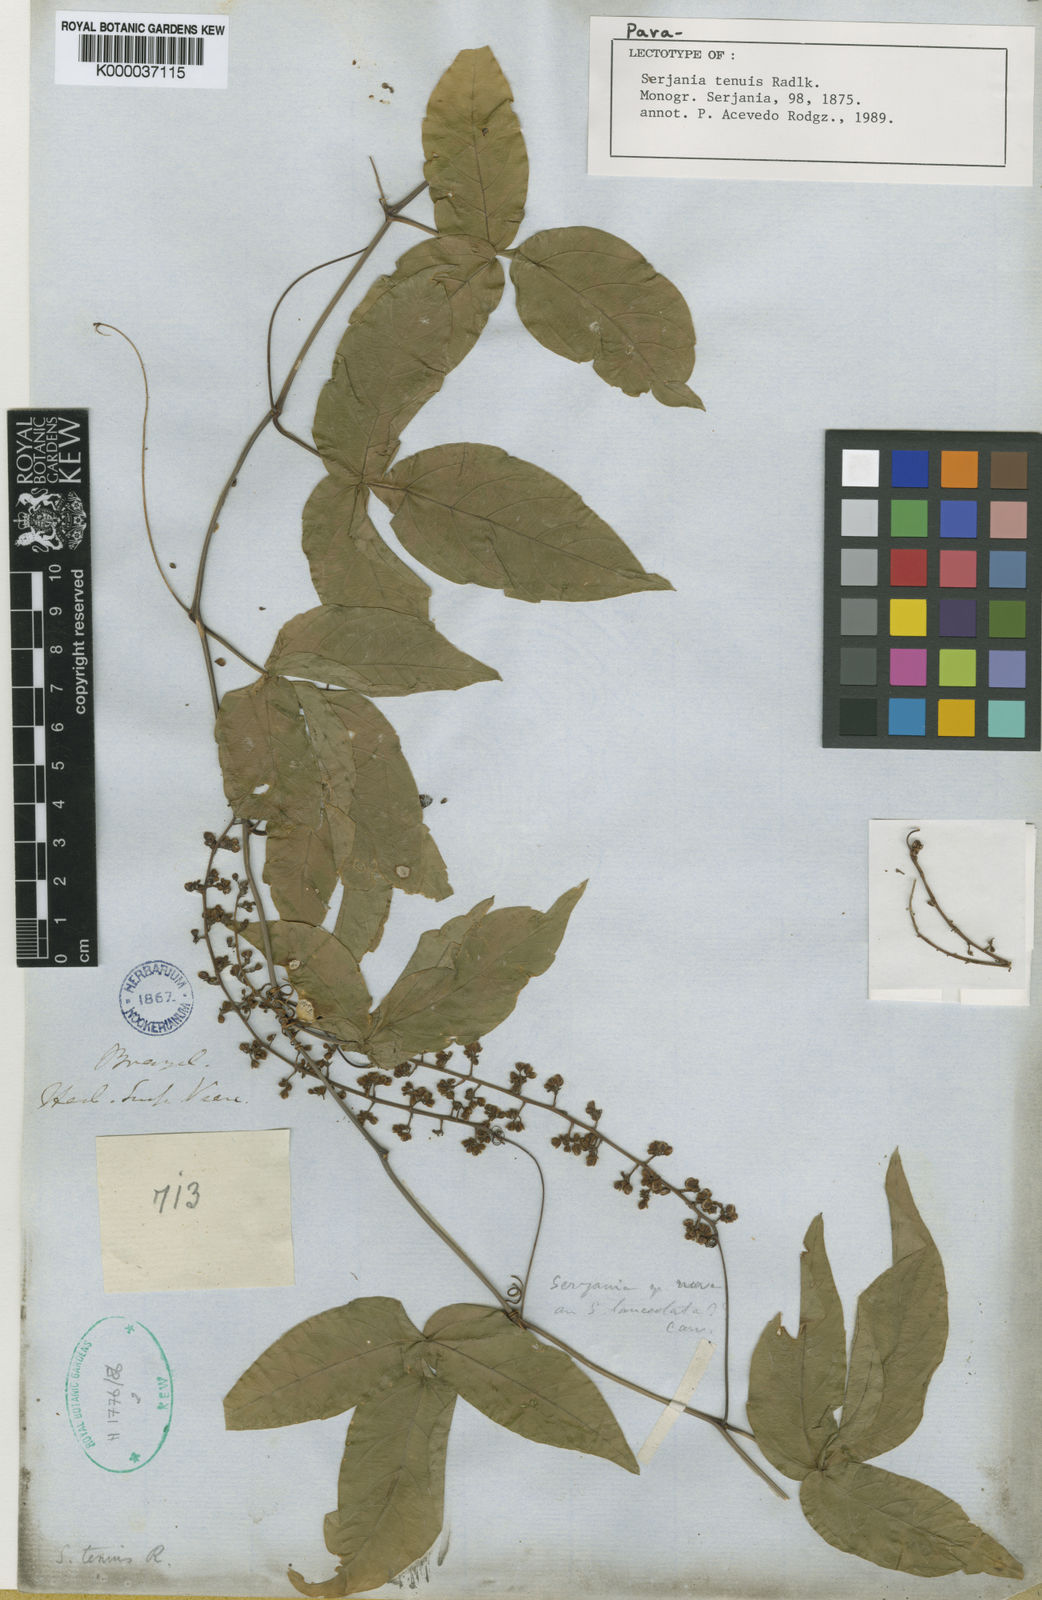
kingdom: Plantae
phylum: Tracheophyta
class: Magnoliopsida
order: Sapindales
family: Sapindaceae
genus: Serjania
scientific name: Serjania tenuis
